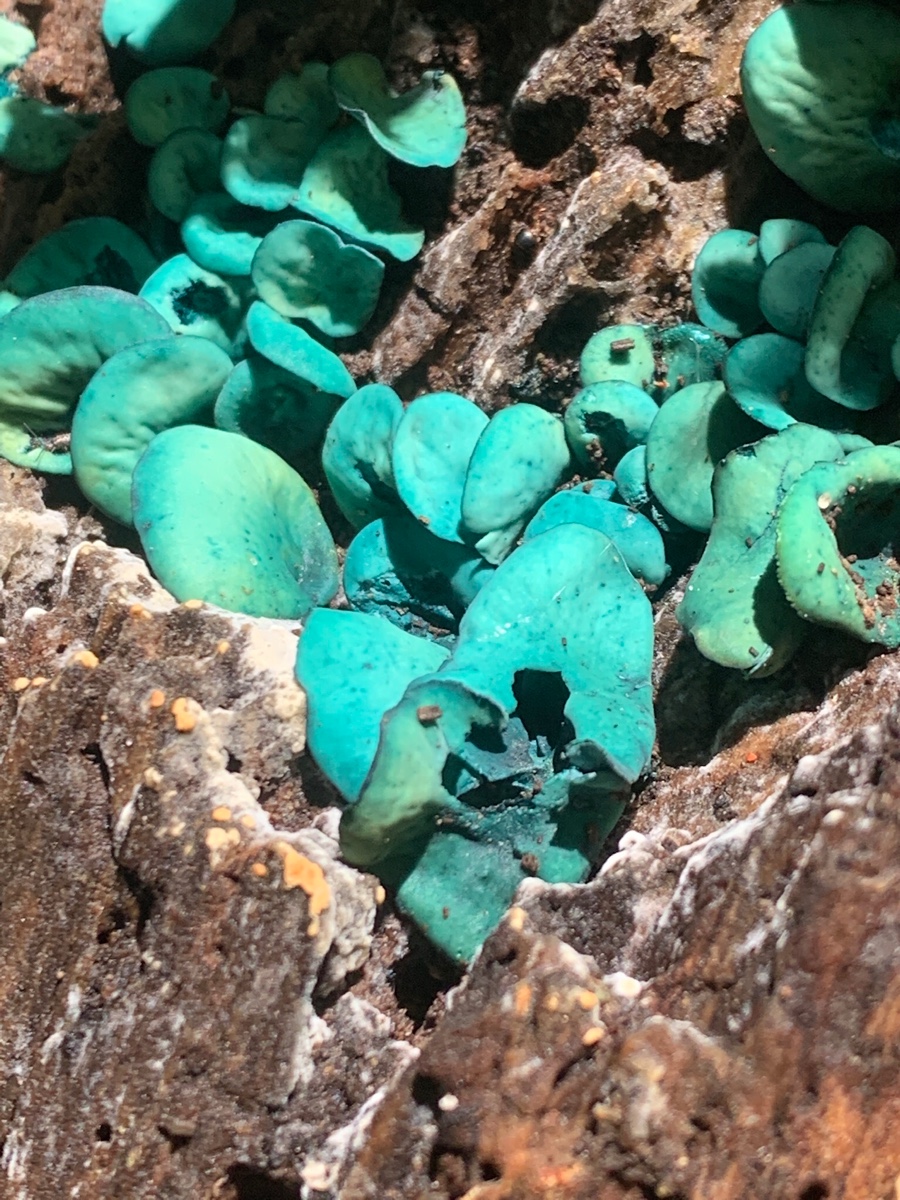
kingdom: Fungi
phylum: Ascomycota
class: Leotiomycetes
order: Helotiales
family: Chlorociboriaceae
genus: Chlorociboria
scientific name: Chlorociboria aeruginascens
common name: almindelig grønskive
